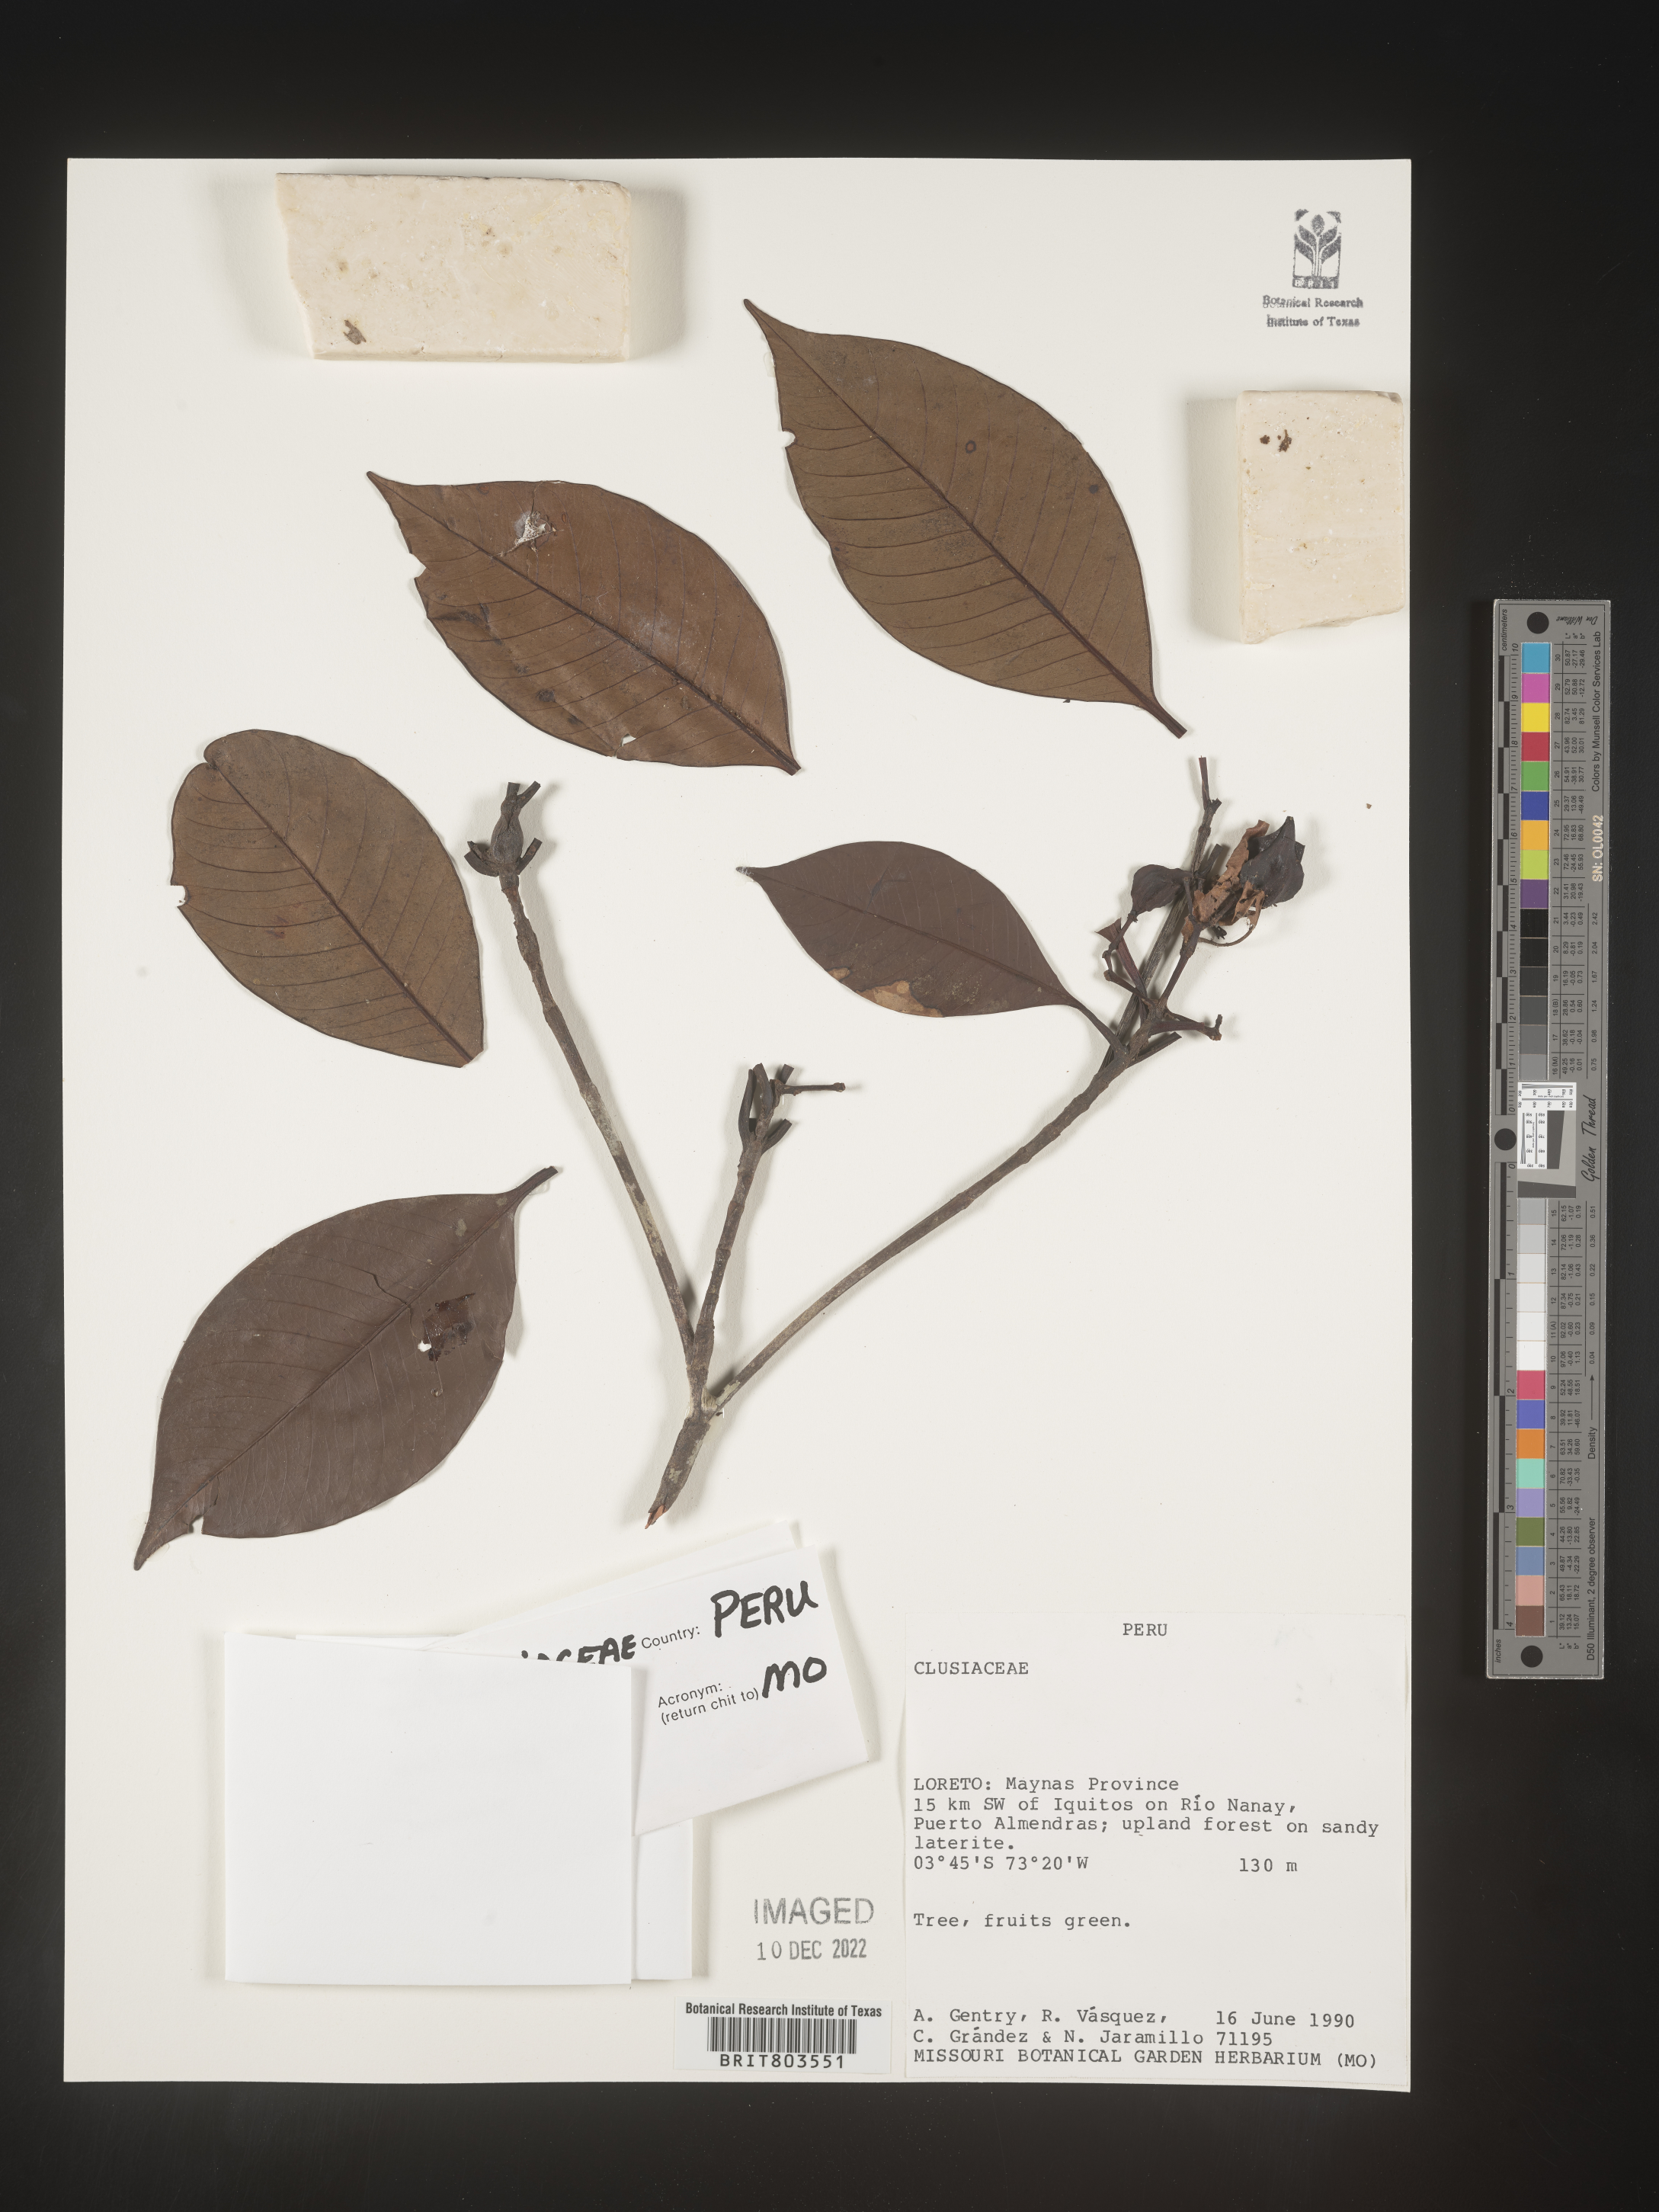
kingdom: Plantae
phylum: Tracheophyta
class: Magnoliopsida
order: Malpighiales
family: Clusiaceae
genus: Tovomita
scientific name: Tovomita
